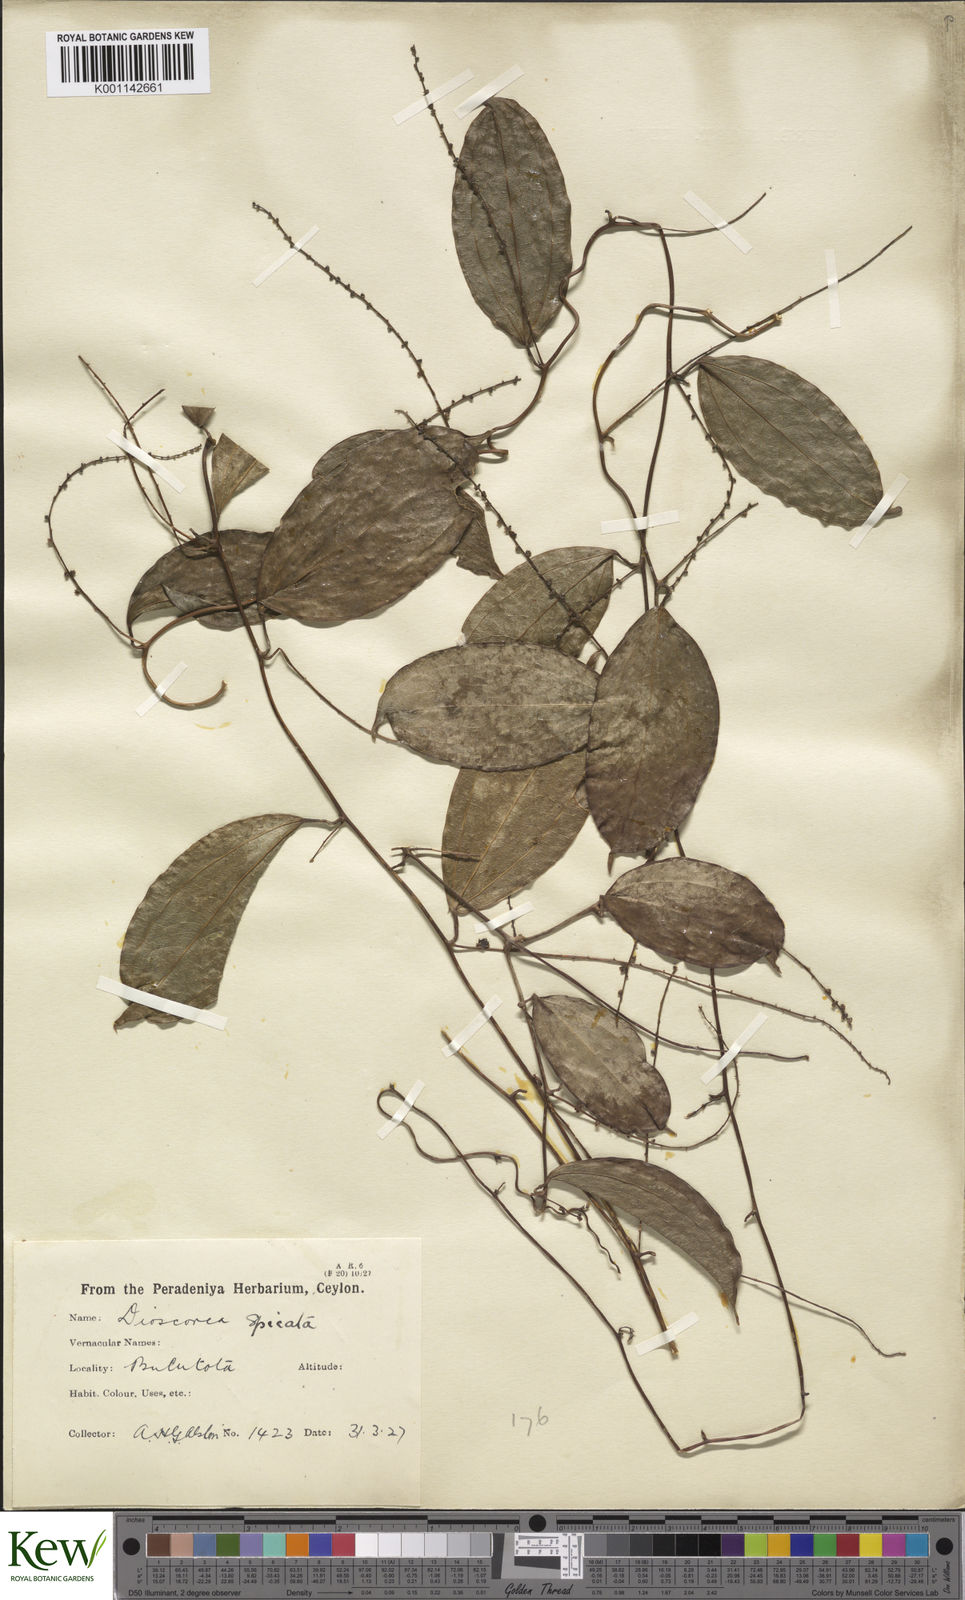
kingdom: Plantae
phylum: Tracheophyta
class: Liliopsida
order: Dioscoreales
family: Dioscoreaceae
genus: Dioscorea
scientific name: Dioscorea spicata
